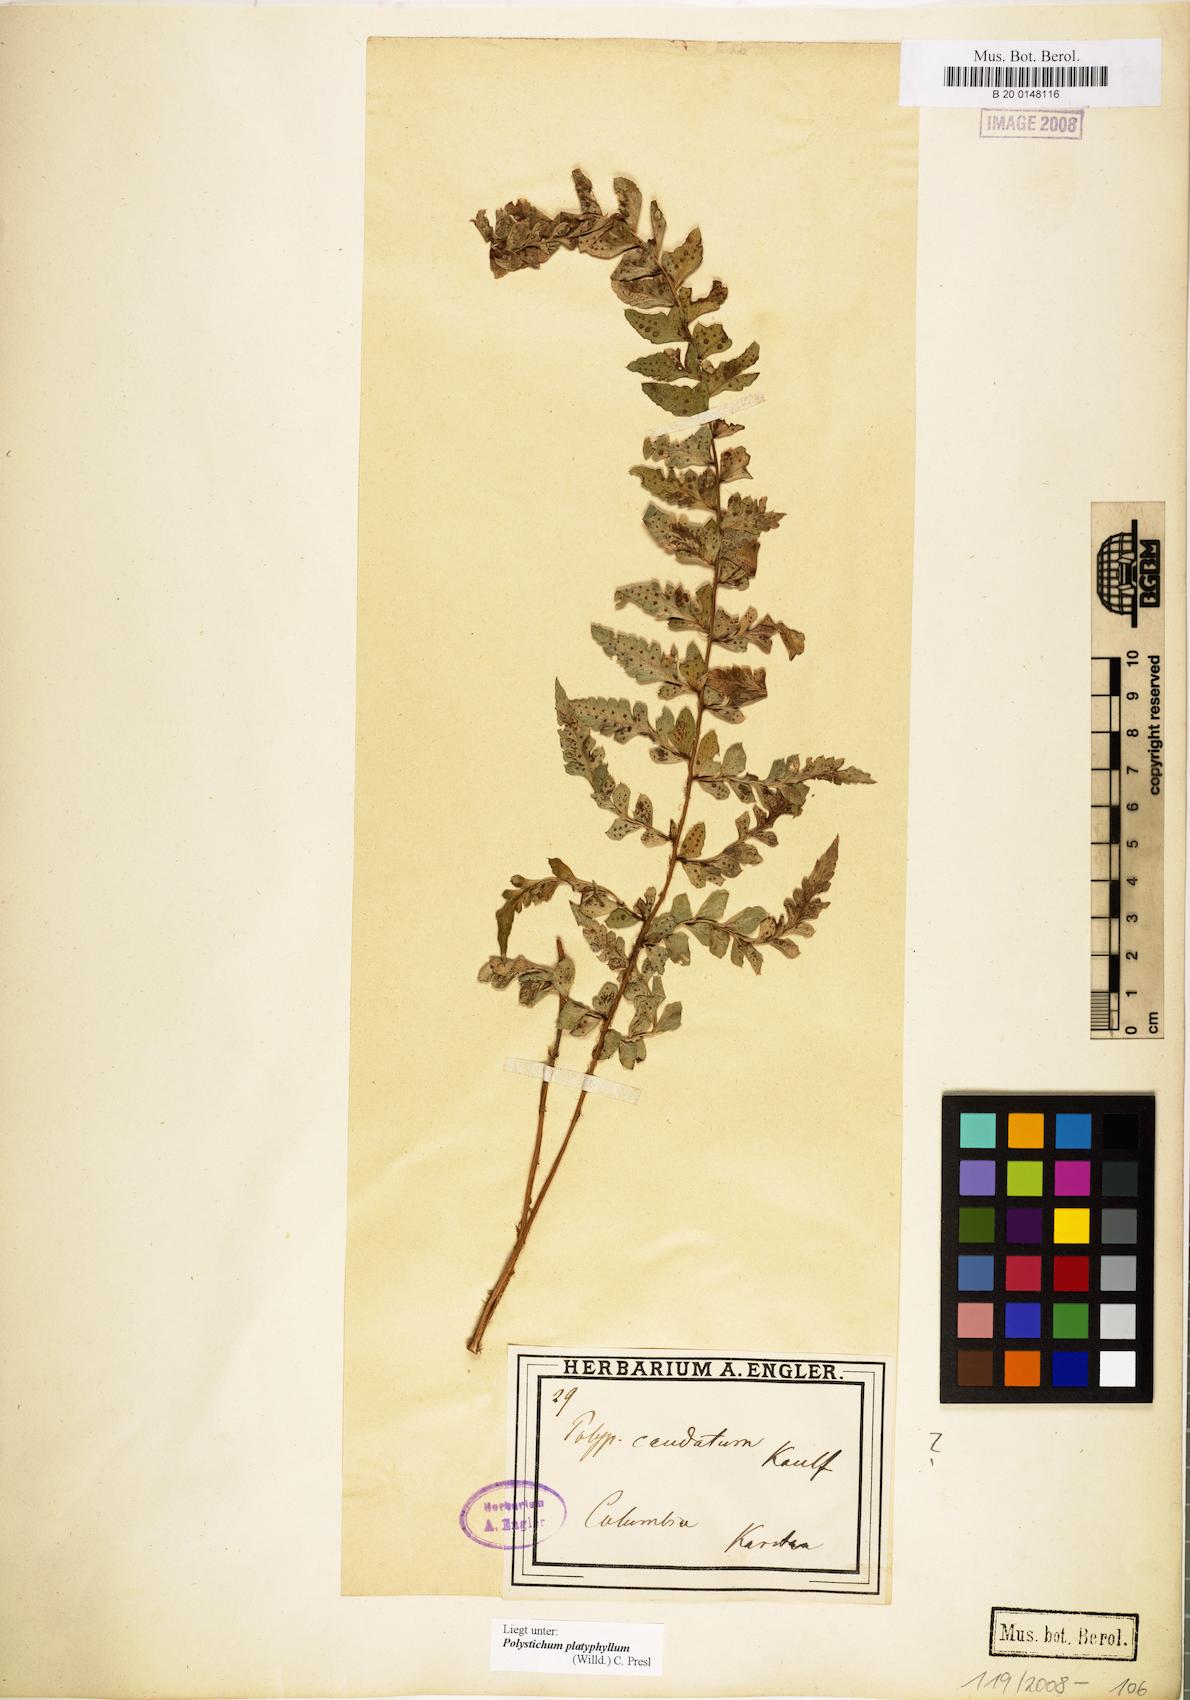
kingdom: Plantae
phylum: Tracheophyta
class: Polypodiopsida
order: Polypodiales
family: Dryopteridaceae
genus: Polystichum
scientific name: Polystichum platyphyllum
